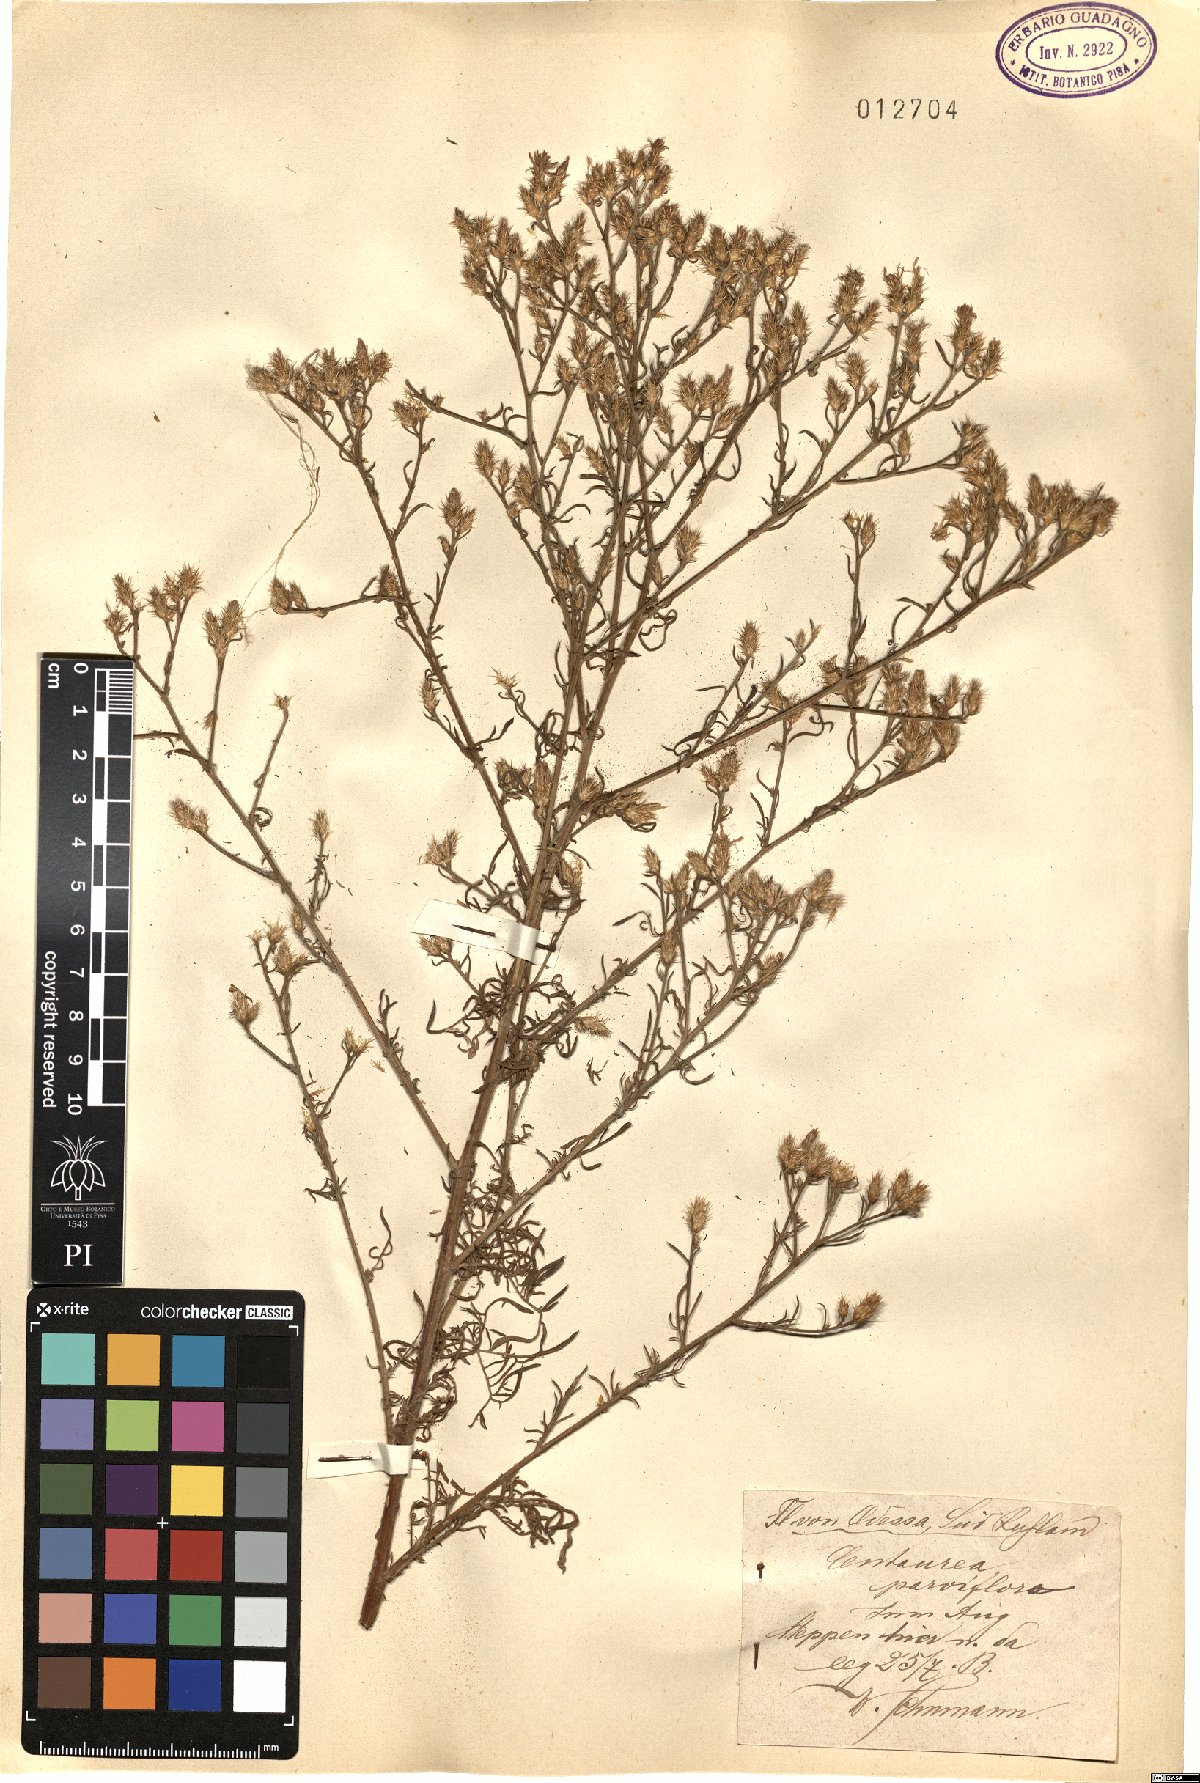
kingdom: Plantae
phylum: Tracheophyta
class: Magnoliopsida
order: Asterales
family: Asteraceae
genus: Centaurea
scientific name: Centaurea parviflora
